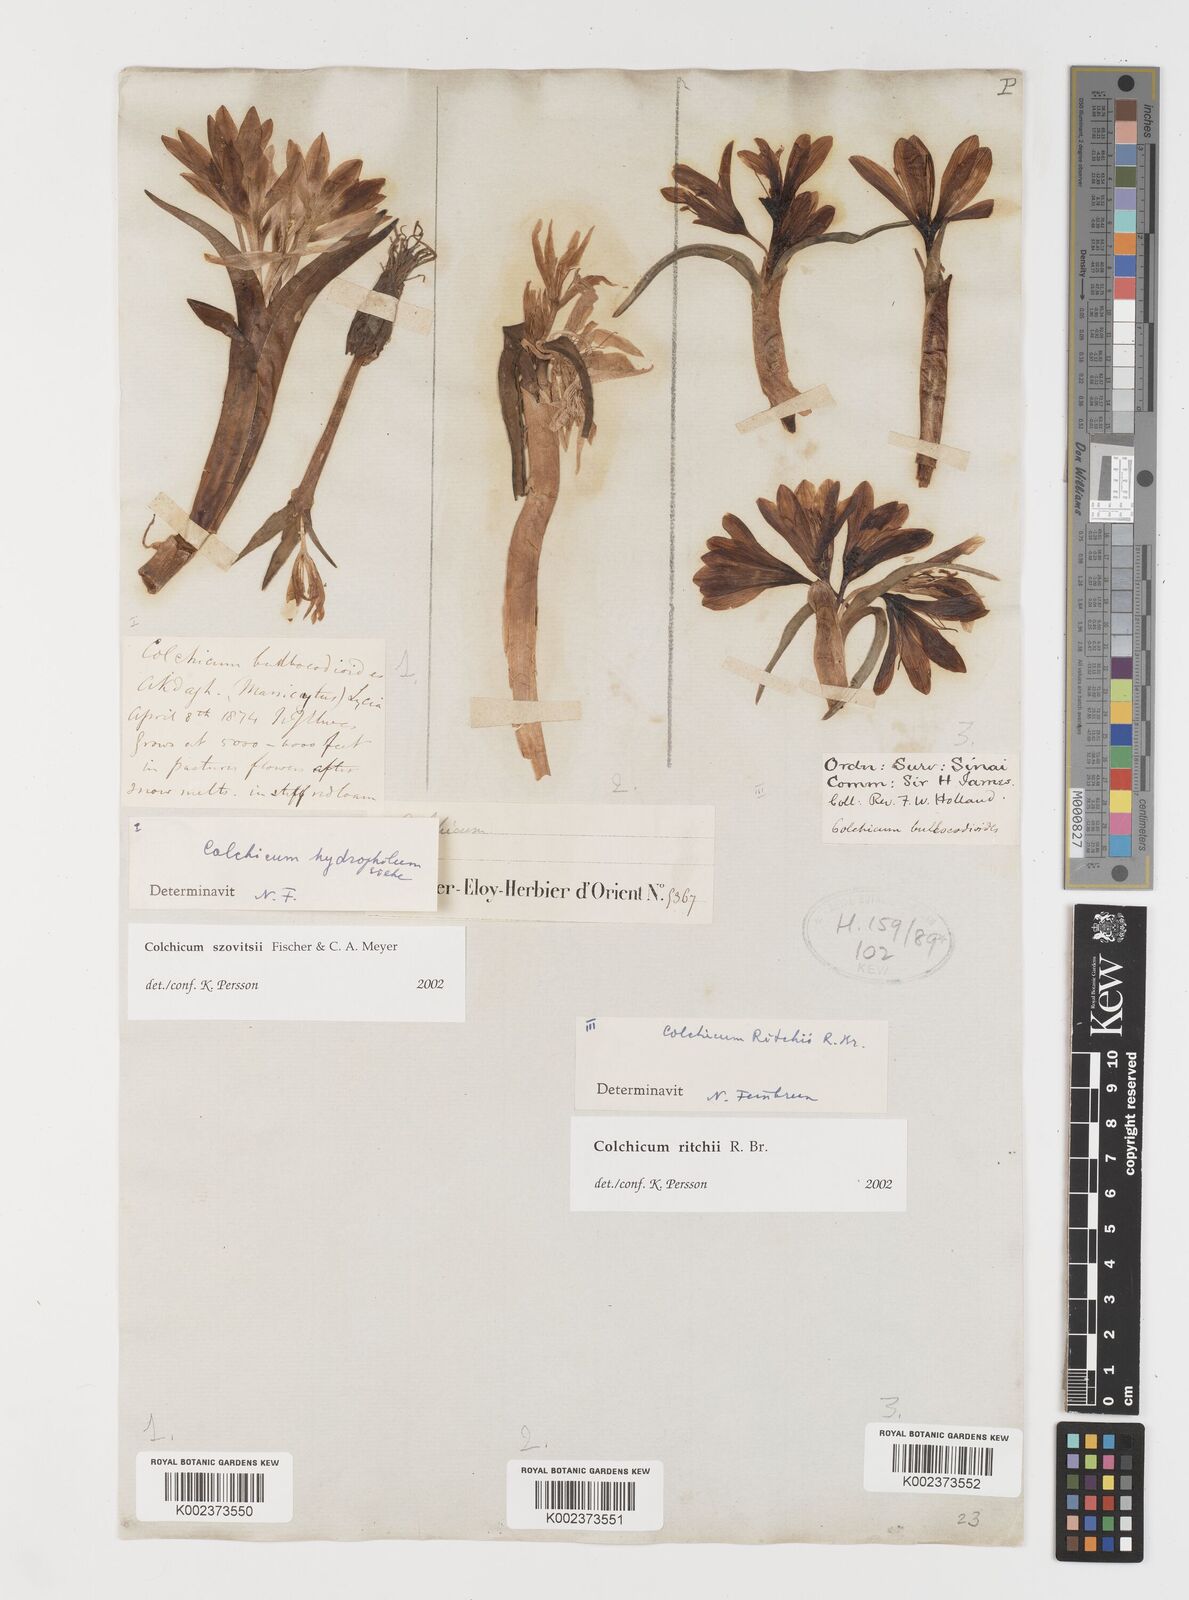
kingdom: Plantae
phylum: Tracheophyta
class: Liliopsida
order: Liliales
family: Colchicaceae
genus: Colchicum
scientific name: Colchicum ritchii
